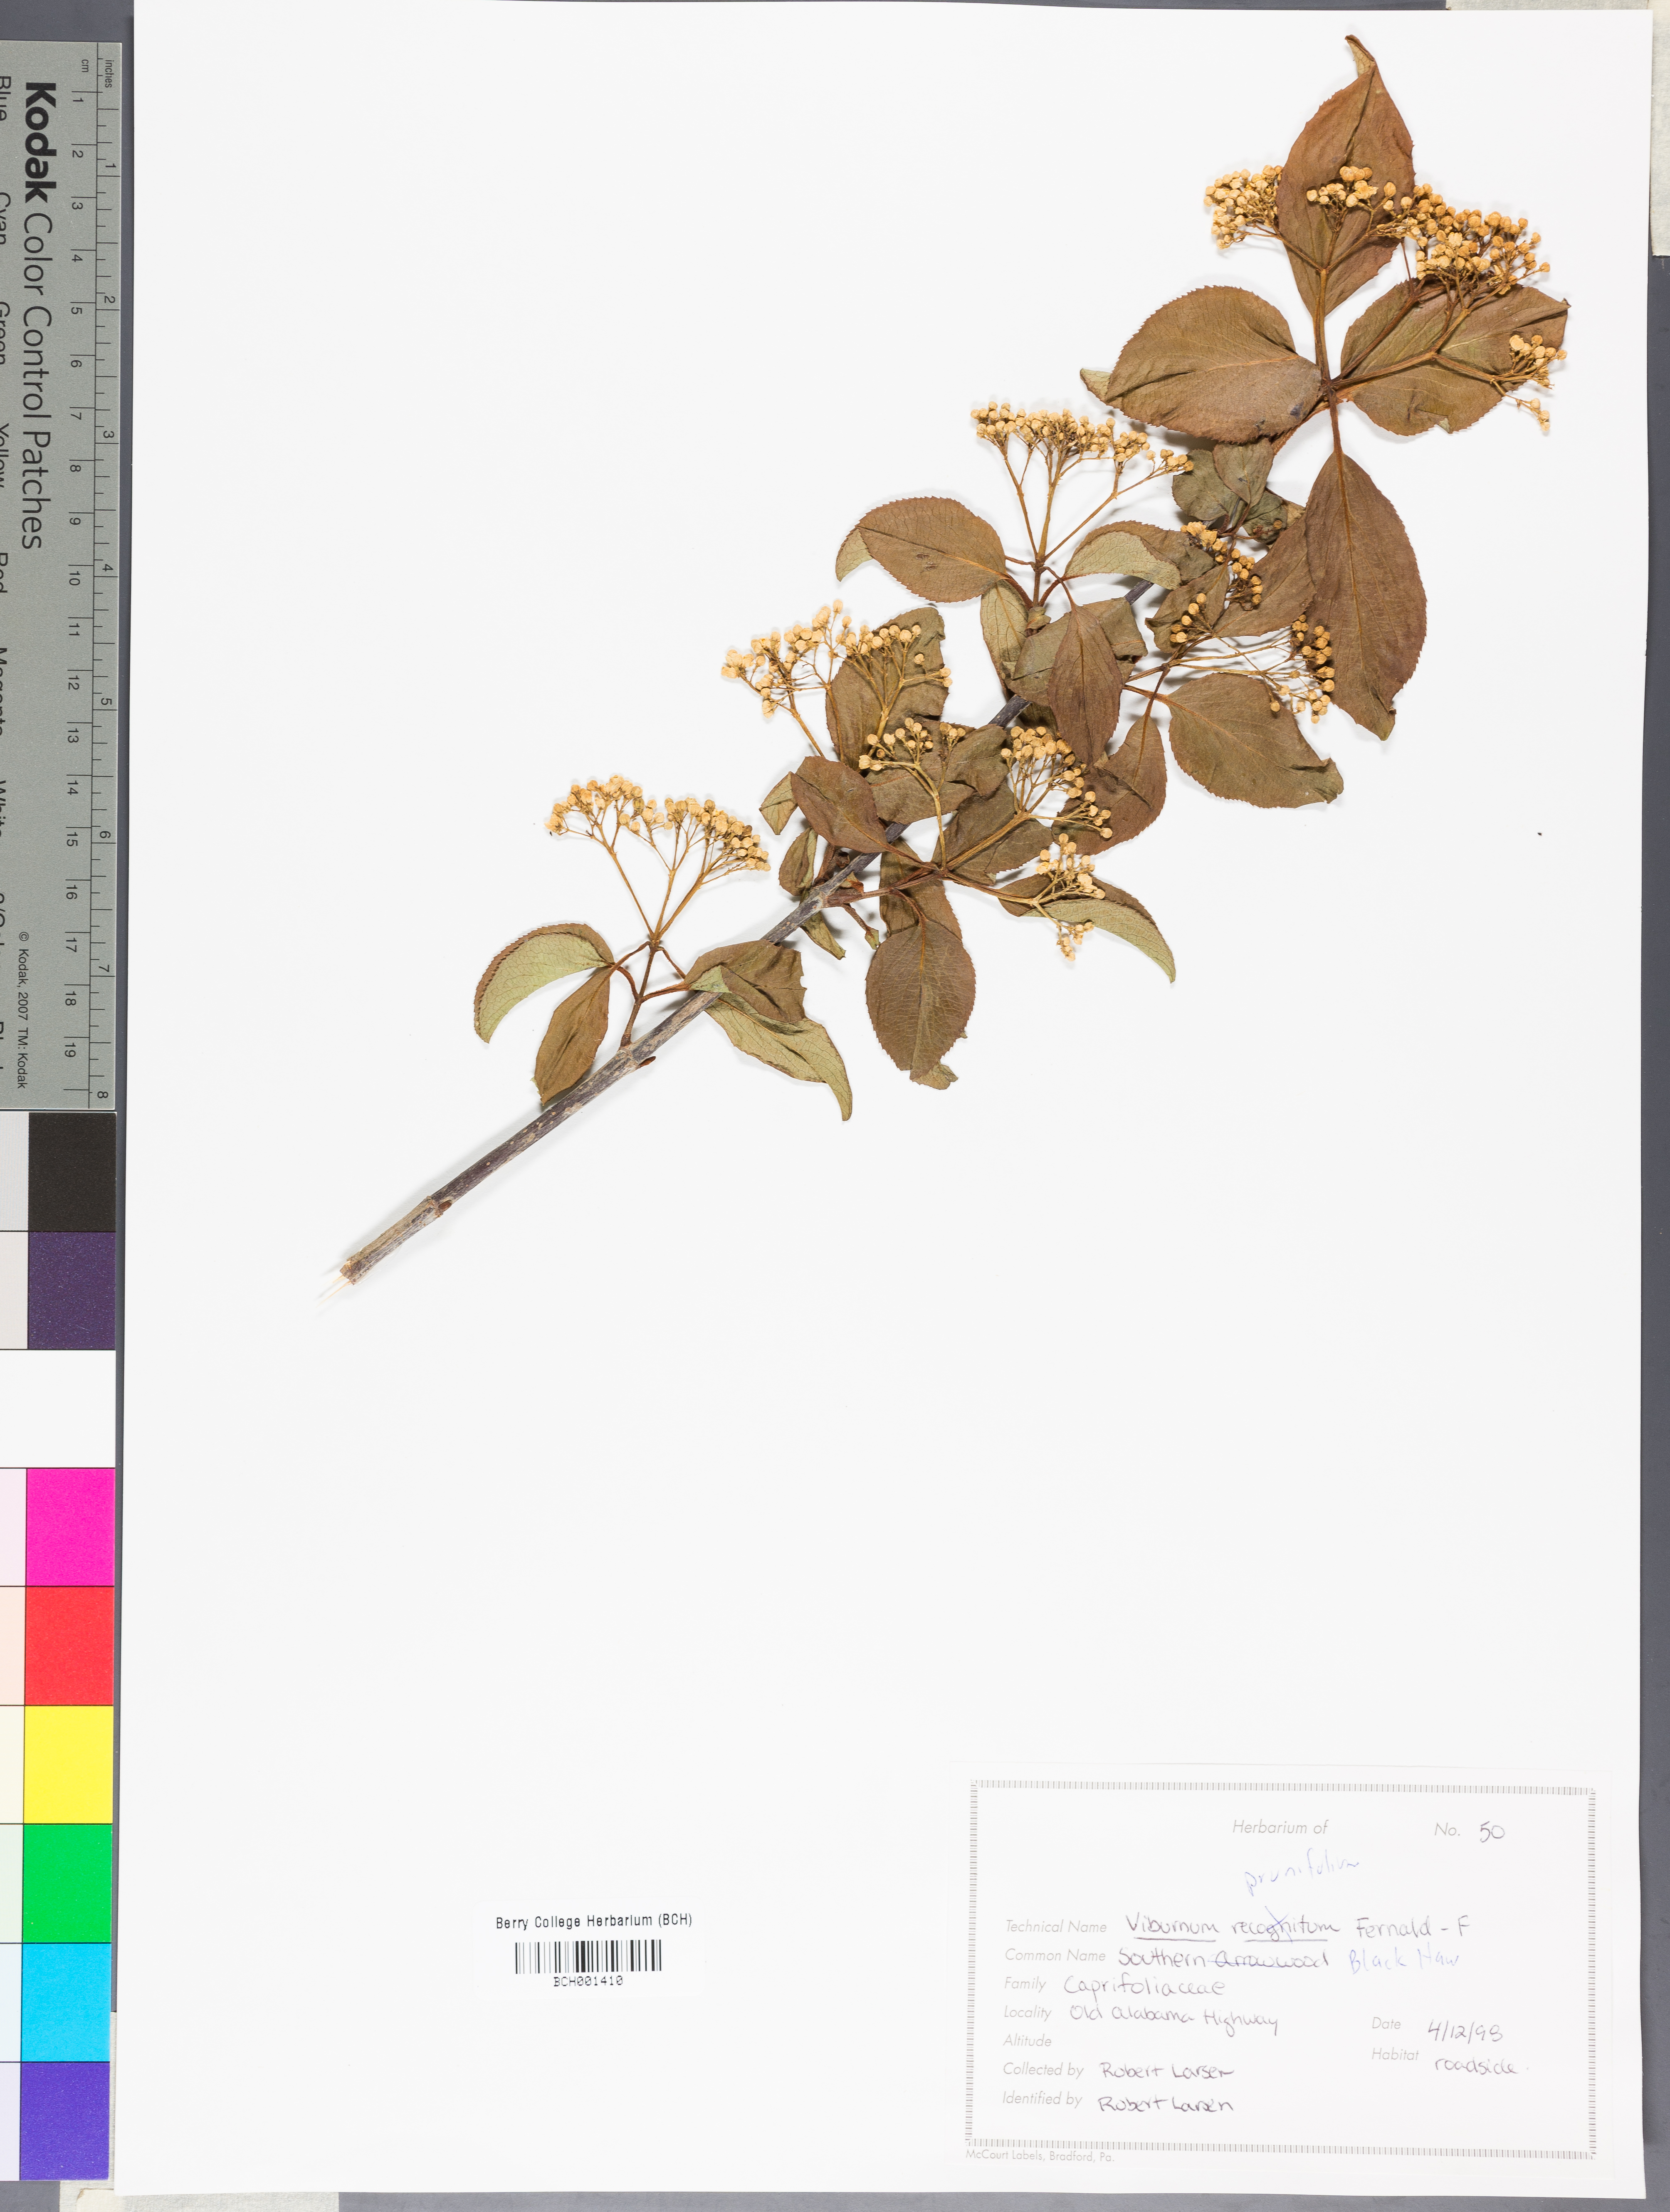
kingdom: Plantae
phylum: Tracheophyta
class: Magnoliopsida
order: Dipsacales
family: Viburnaceae
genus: Viburnum
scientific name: Viburnum prunifolium
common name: Black haw
